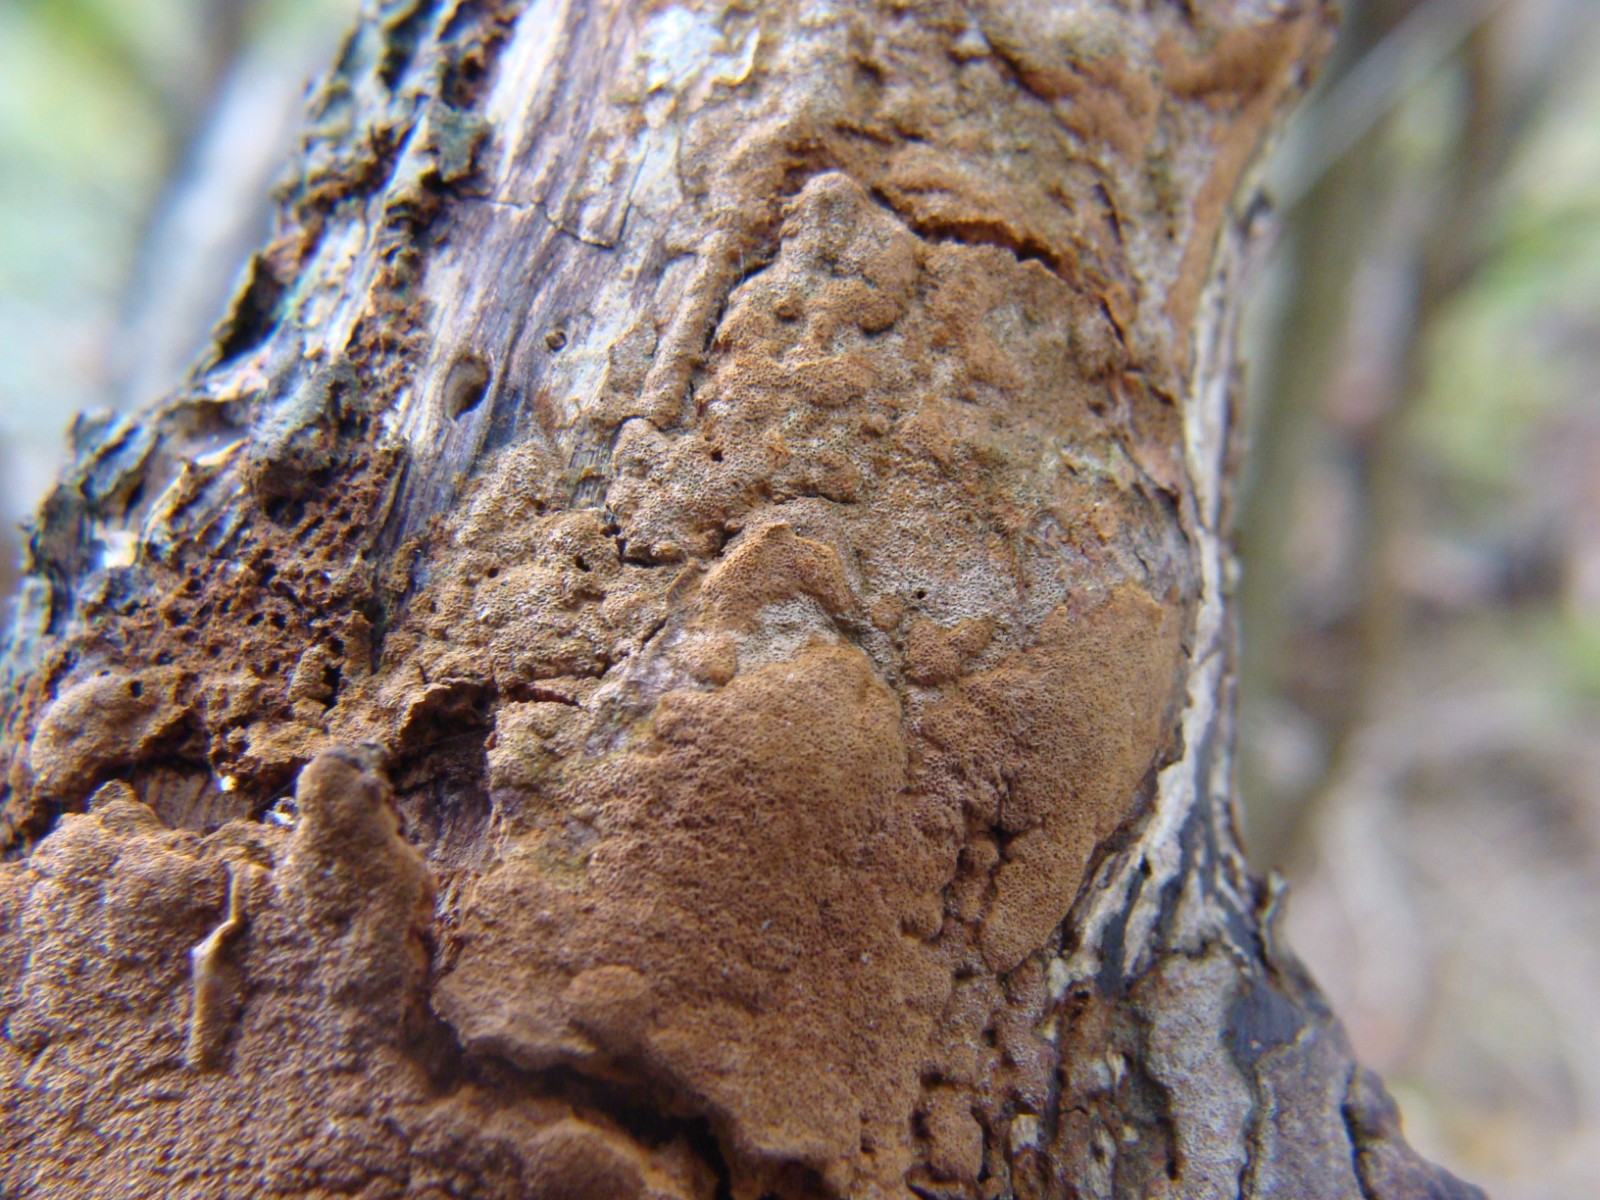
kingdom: Fungi
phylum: Basidiomycota
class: Agaricomycetes
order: Hymenochaetales
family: Hymenochaetaceae
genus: Fomitiporia
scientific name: Fomitiporia
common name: ildporesvamp
